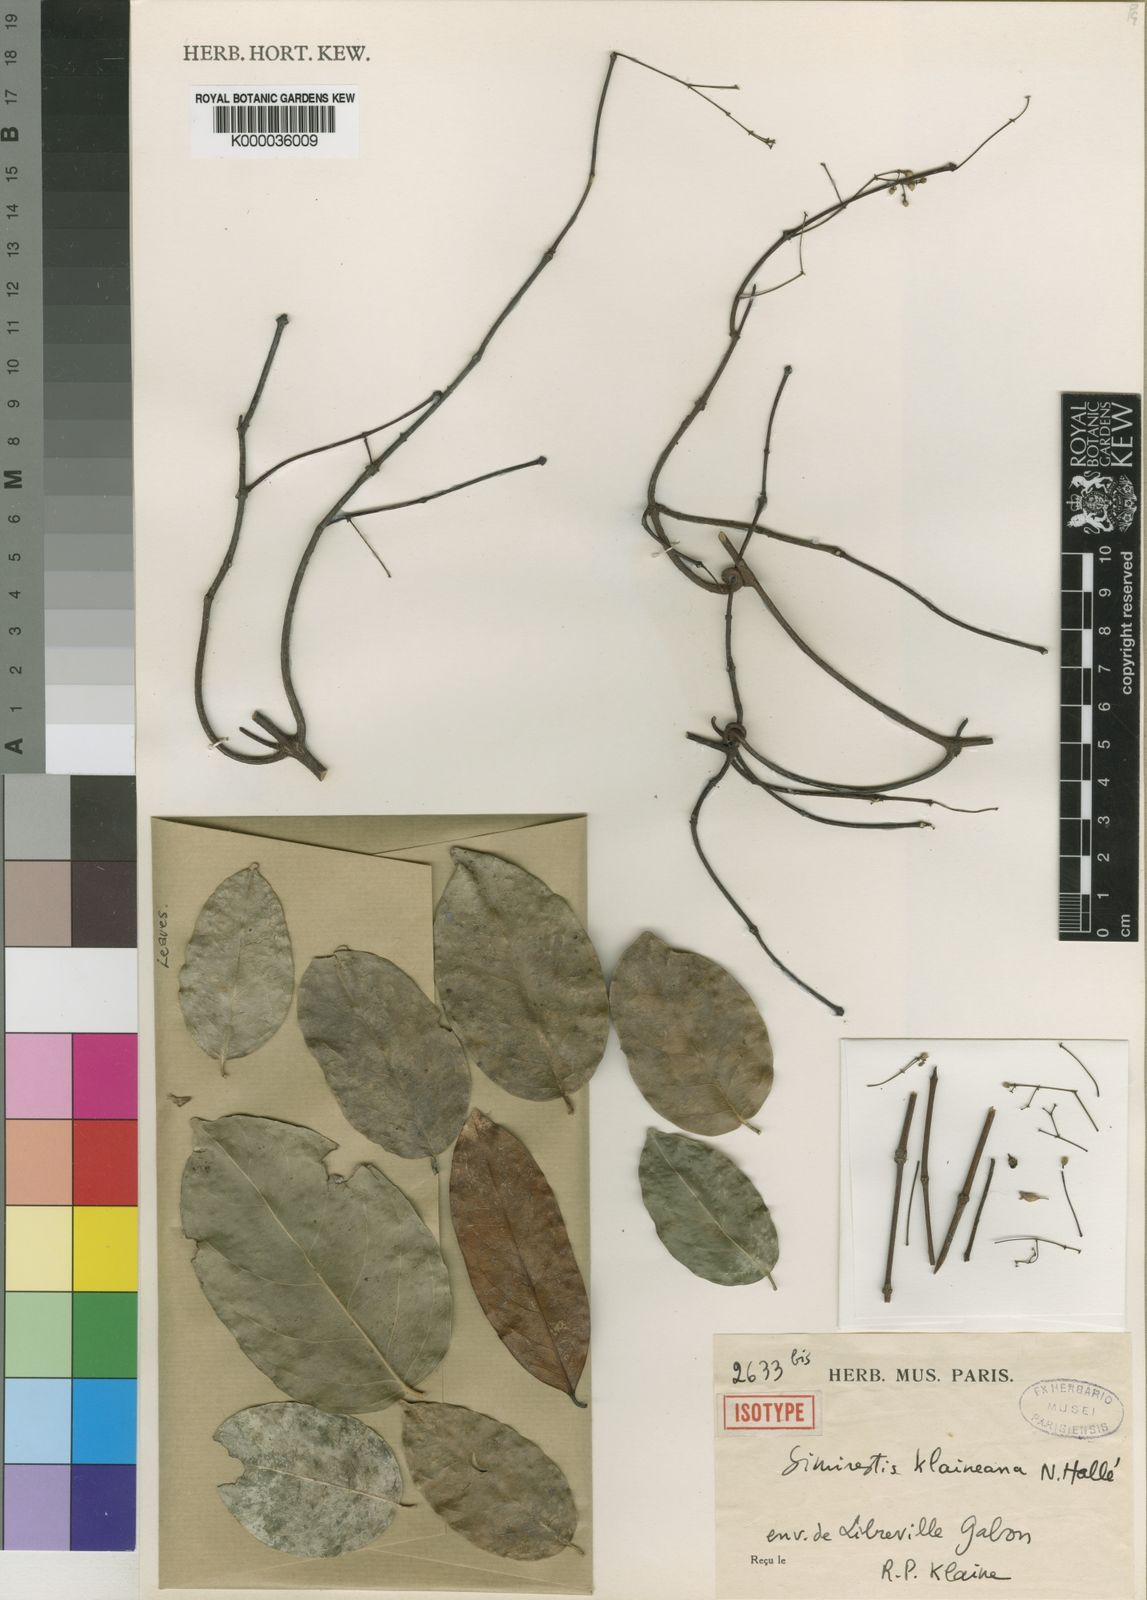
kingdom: Plantae
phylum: Tracheophyta
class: Magnoliopsida
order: Celastrales
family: Celastraceae
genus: Pristimera
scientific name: Pristimera klaineana
